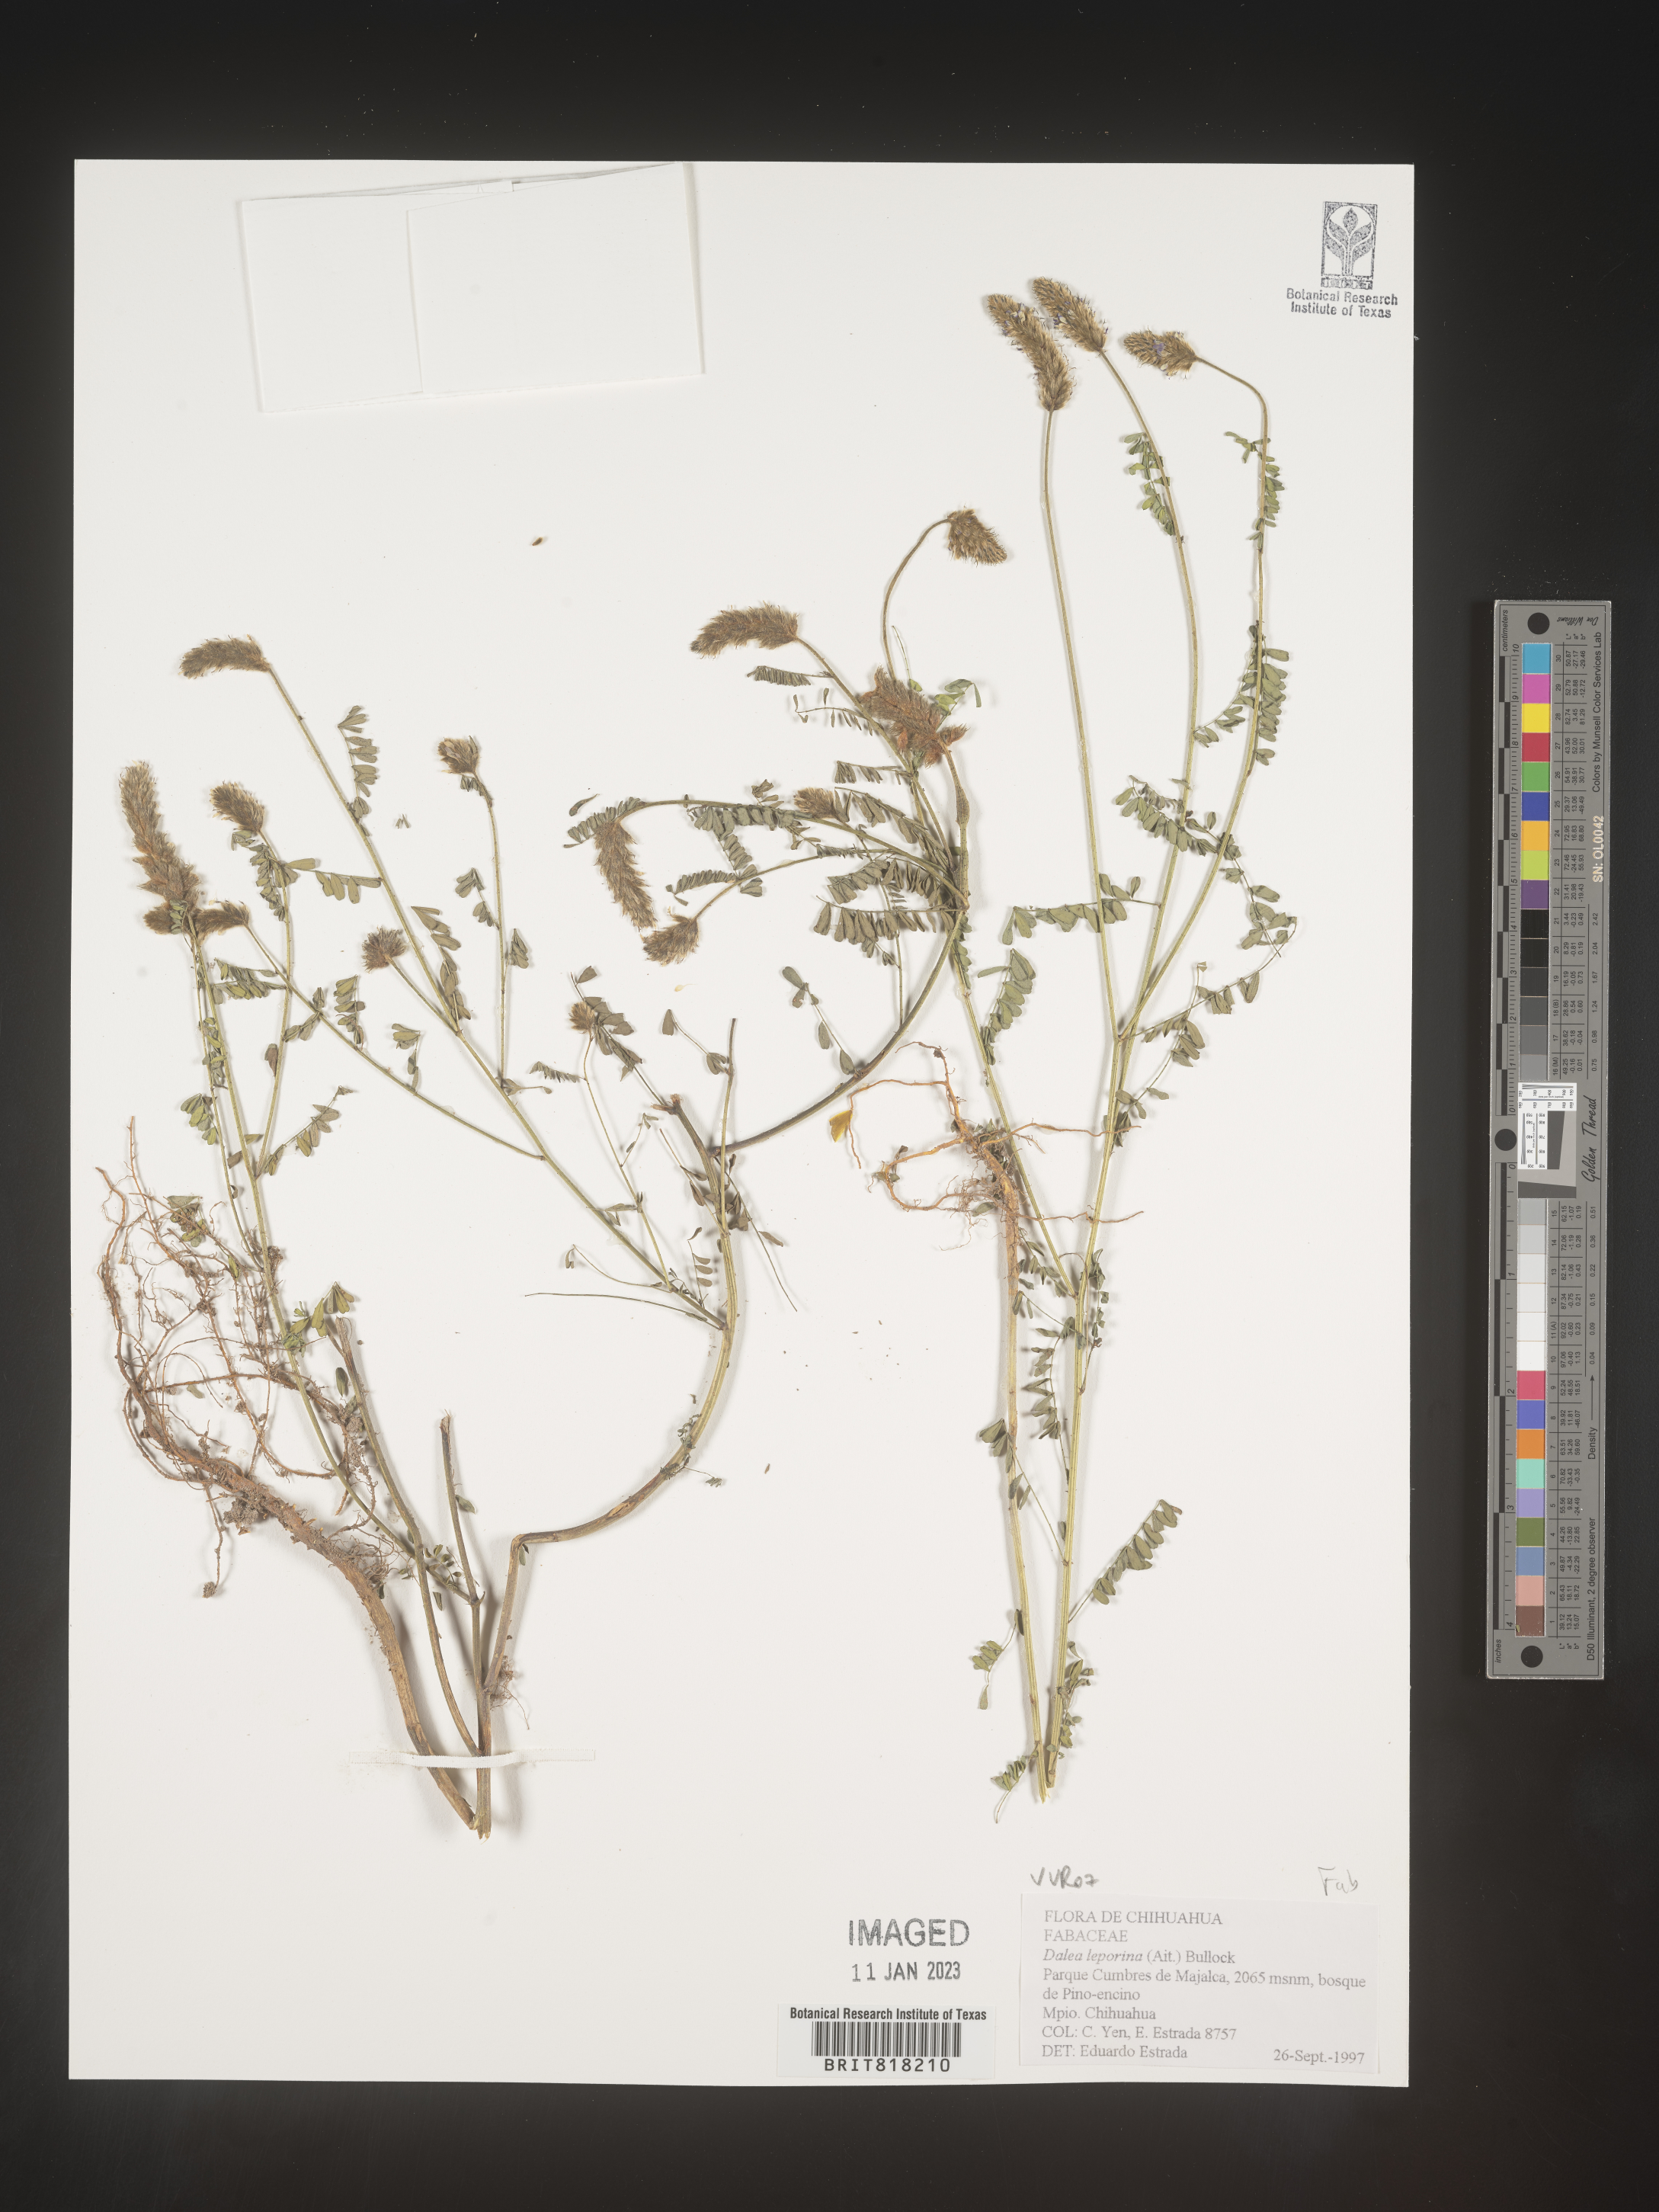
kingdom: Plantae
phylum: Tracheophyta
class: Magnoliopsida
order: Fabales
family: Fabaceae
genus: Dalea
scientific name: Dalea
